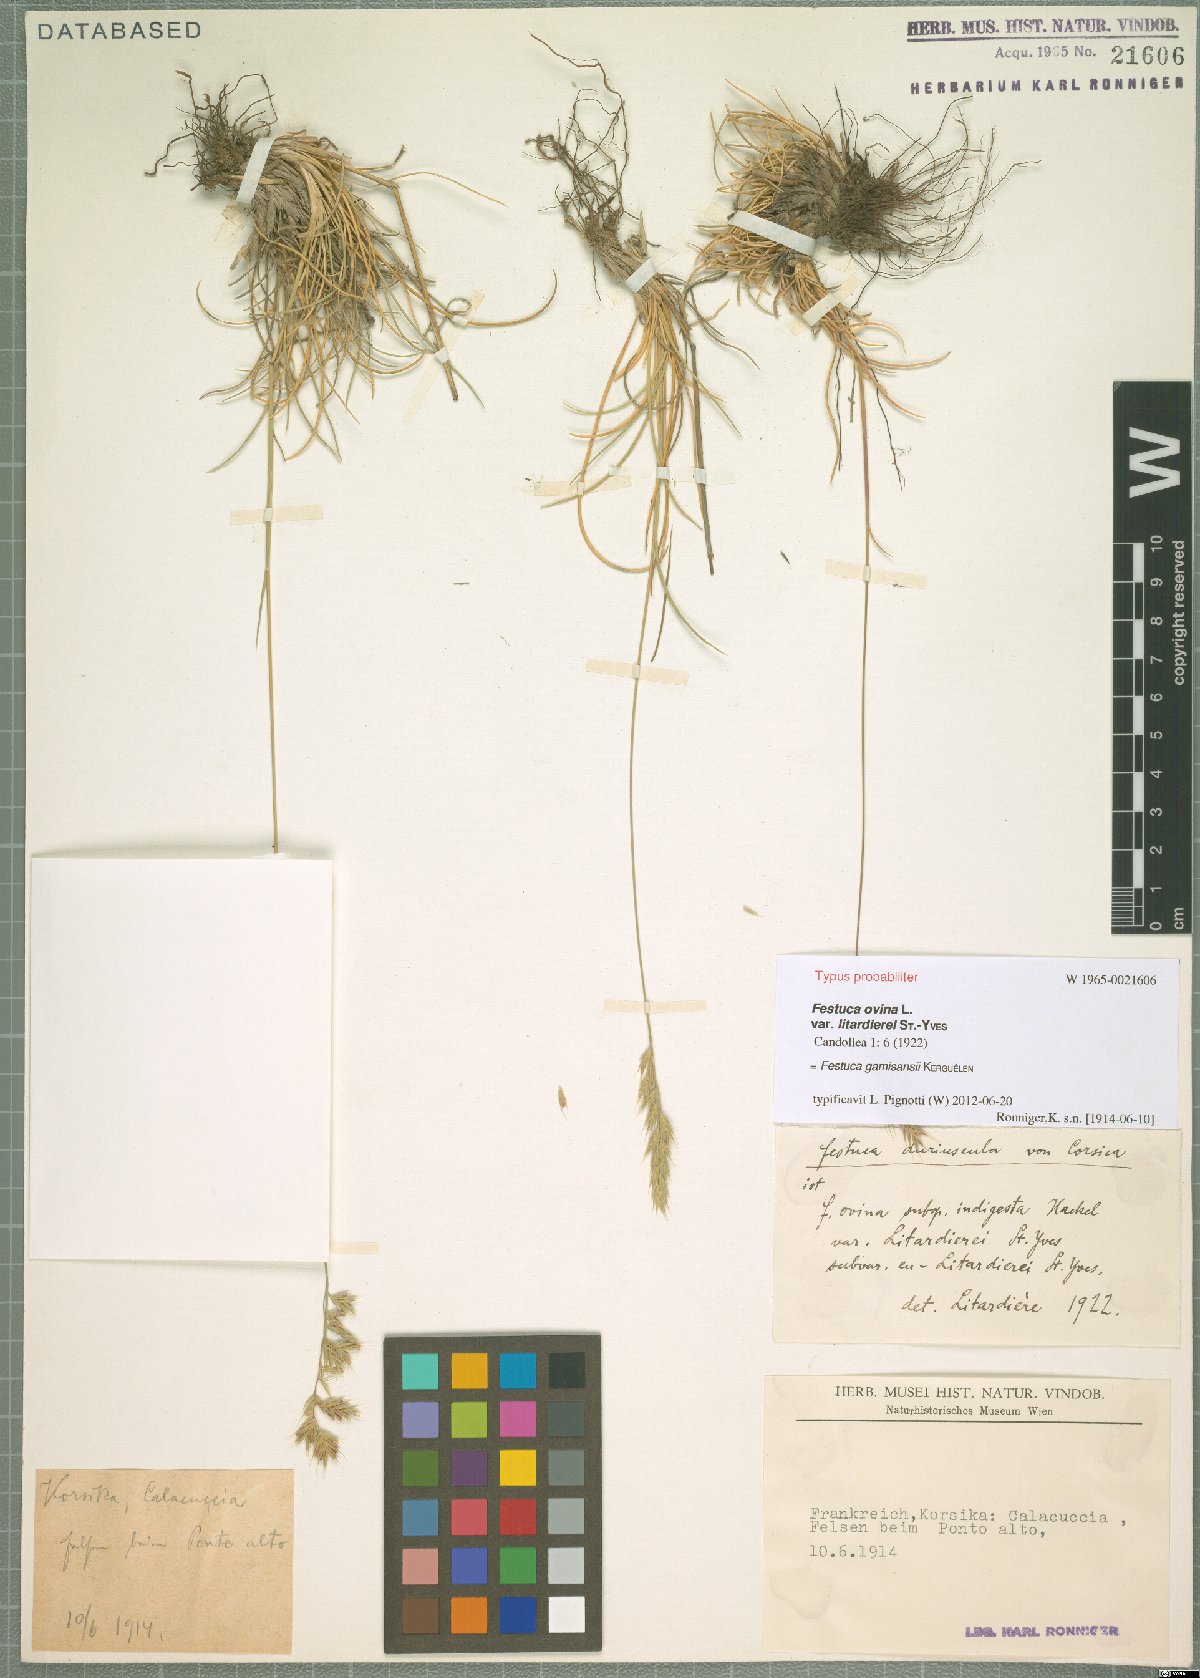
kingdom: Plantae
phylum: Tracheophyta
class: Liliopsida
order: Poales
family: Poaceae
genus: Festuca
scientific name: Festuca gamisansii
